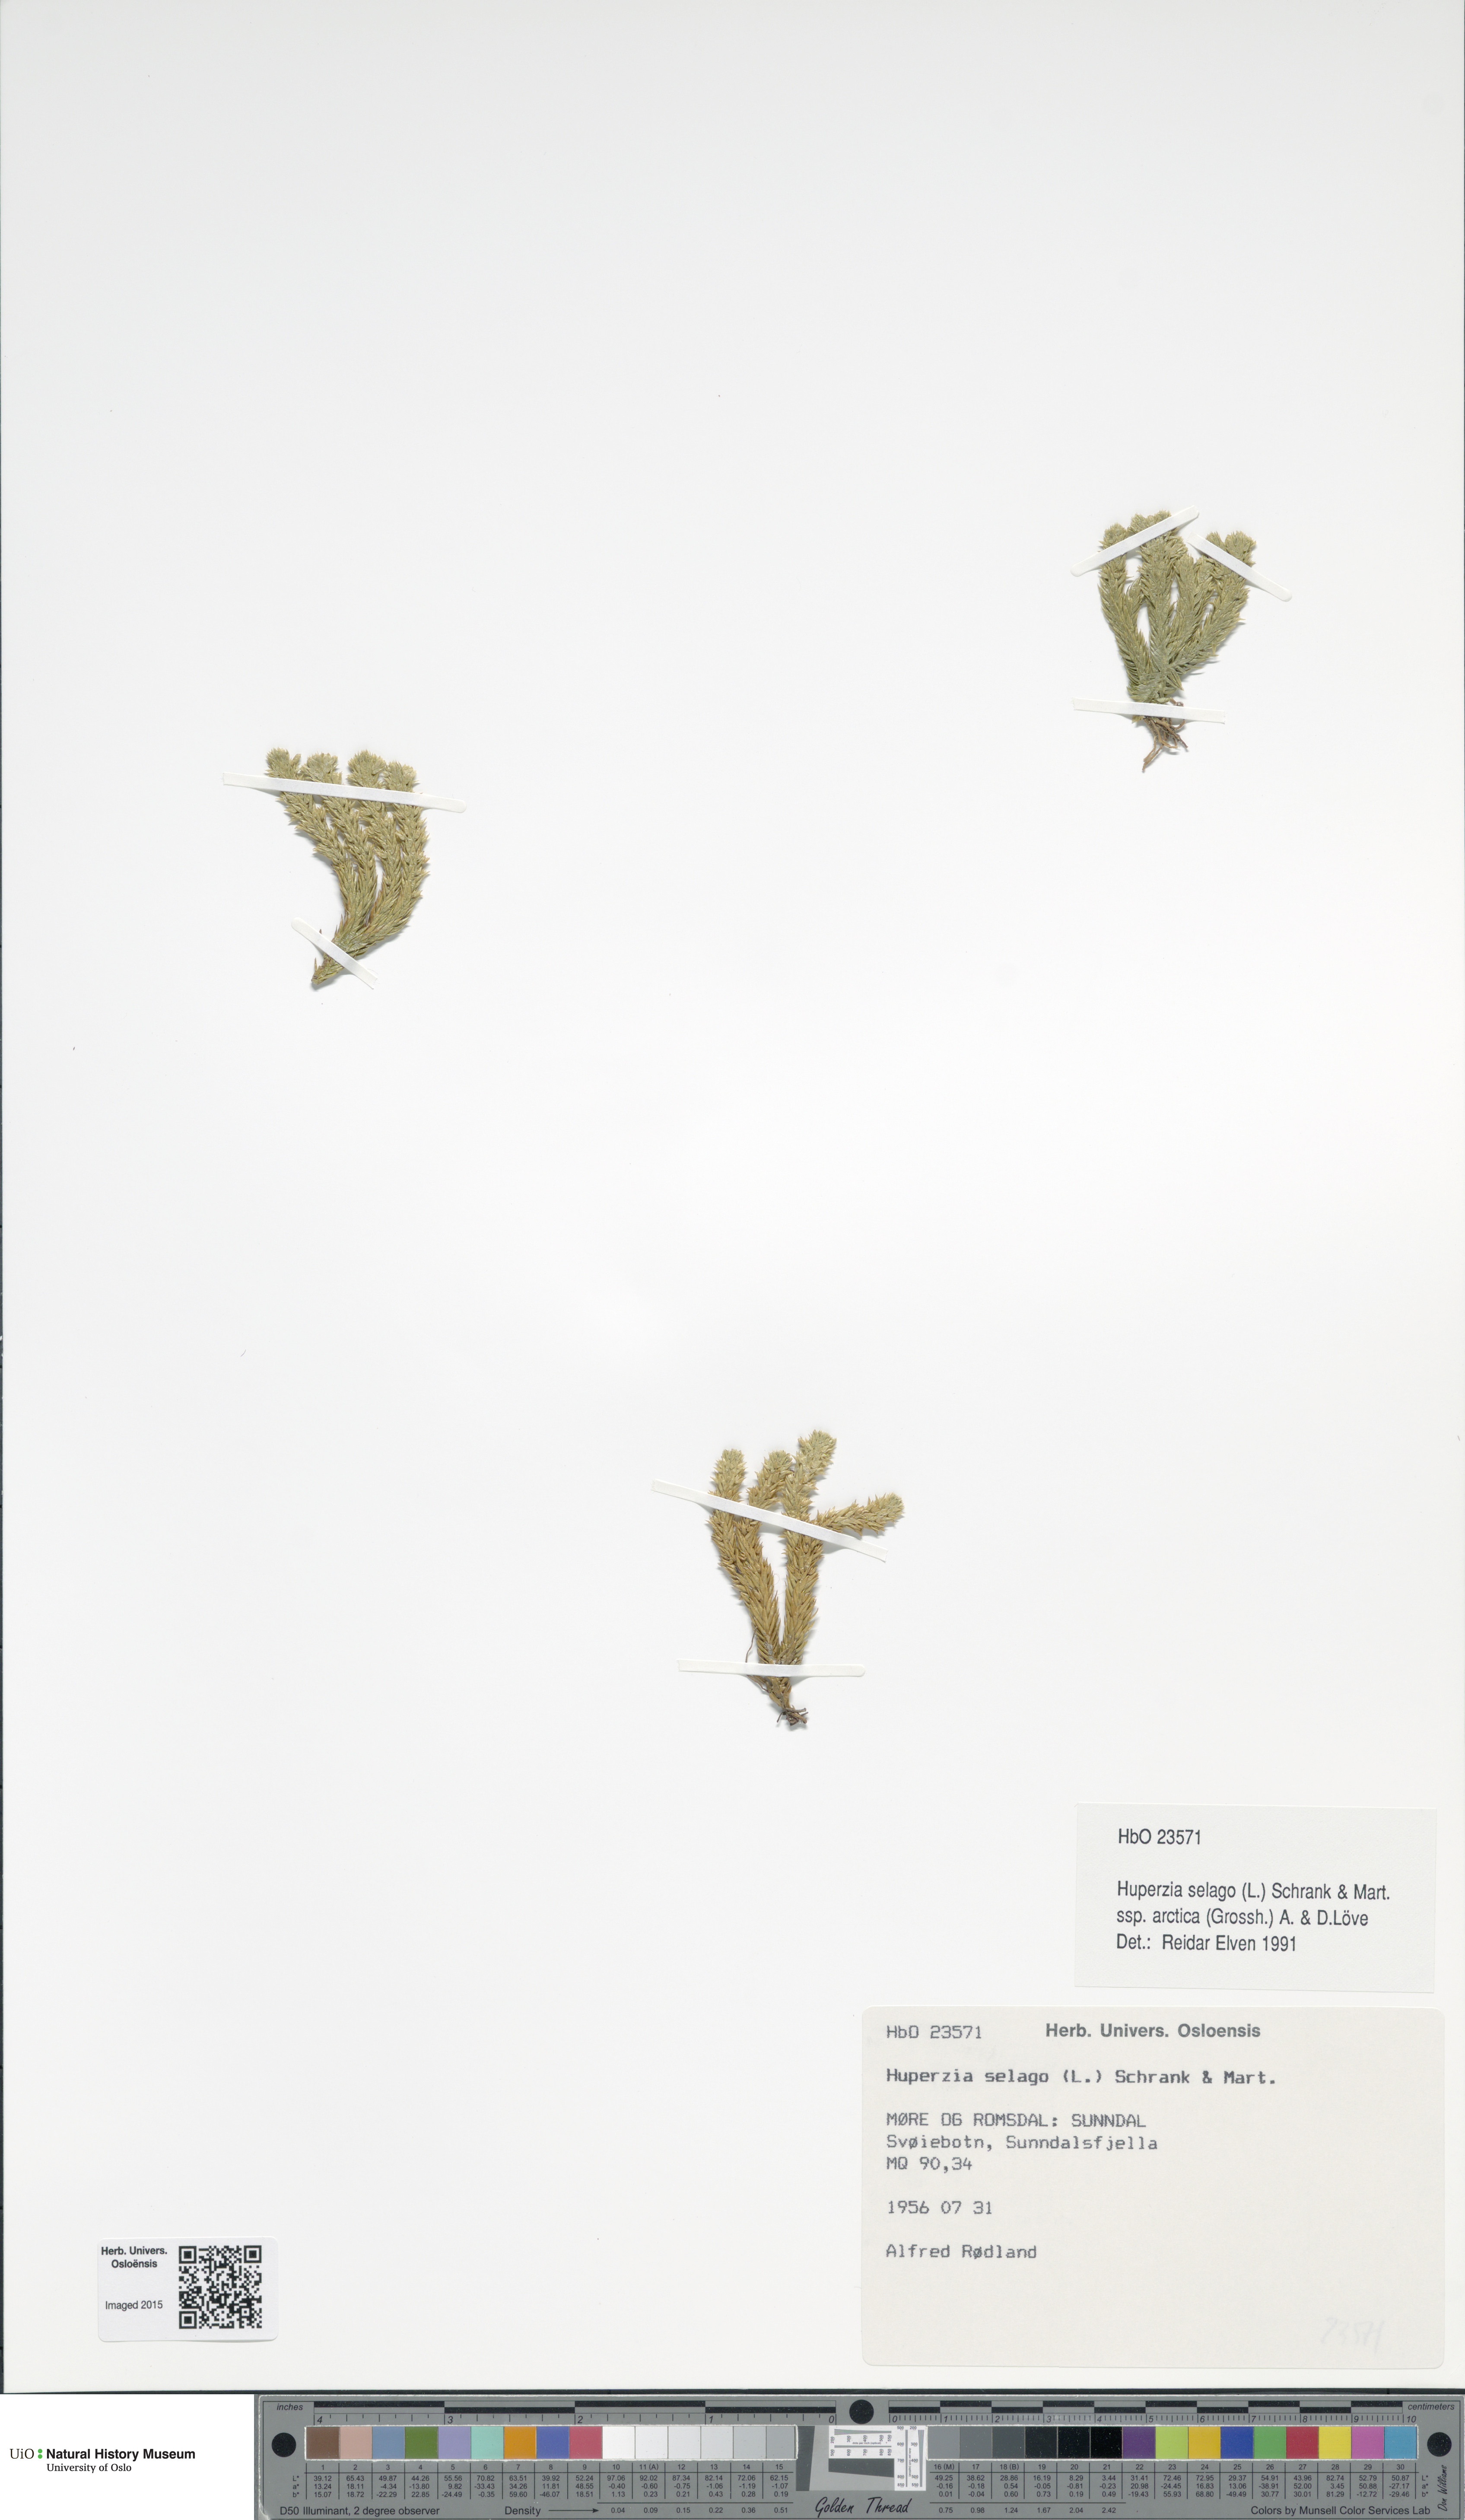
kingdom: Plantae
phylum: Tracheophyta
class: Lycopodiopsida
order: Lycopodiales
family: Lycopodiaceae
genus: Huperzia
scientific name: Huperzia selago
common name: Northern firmoss
